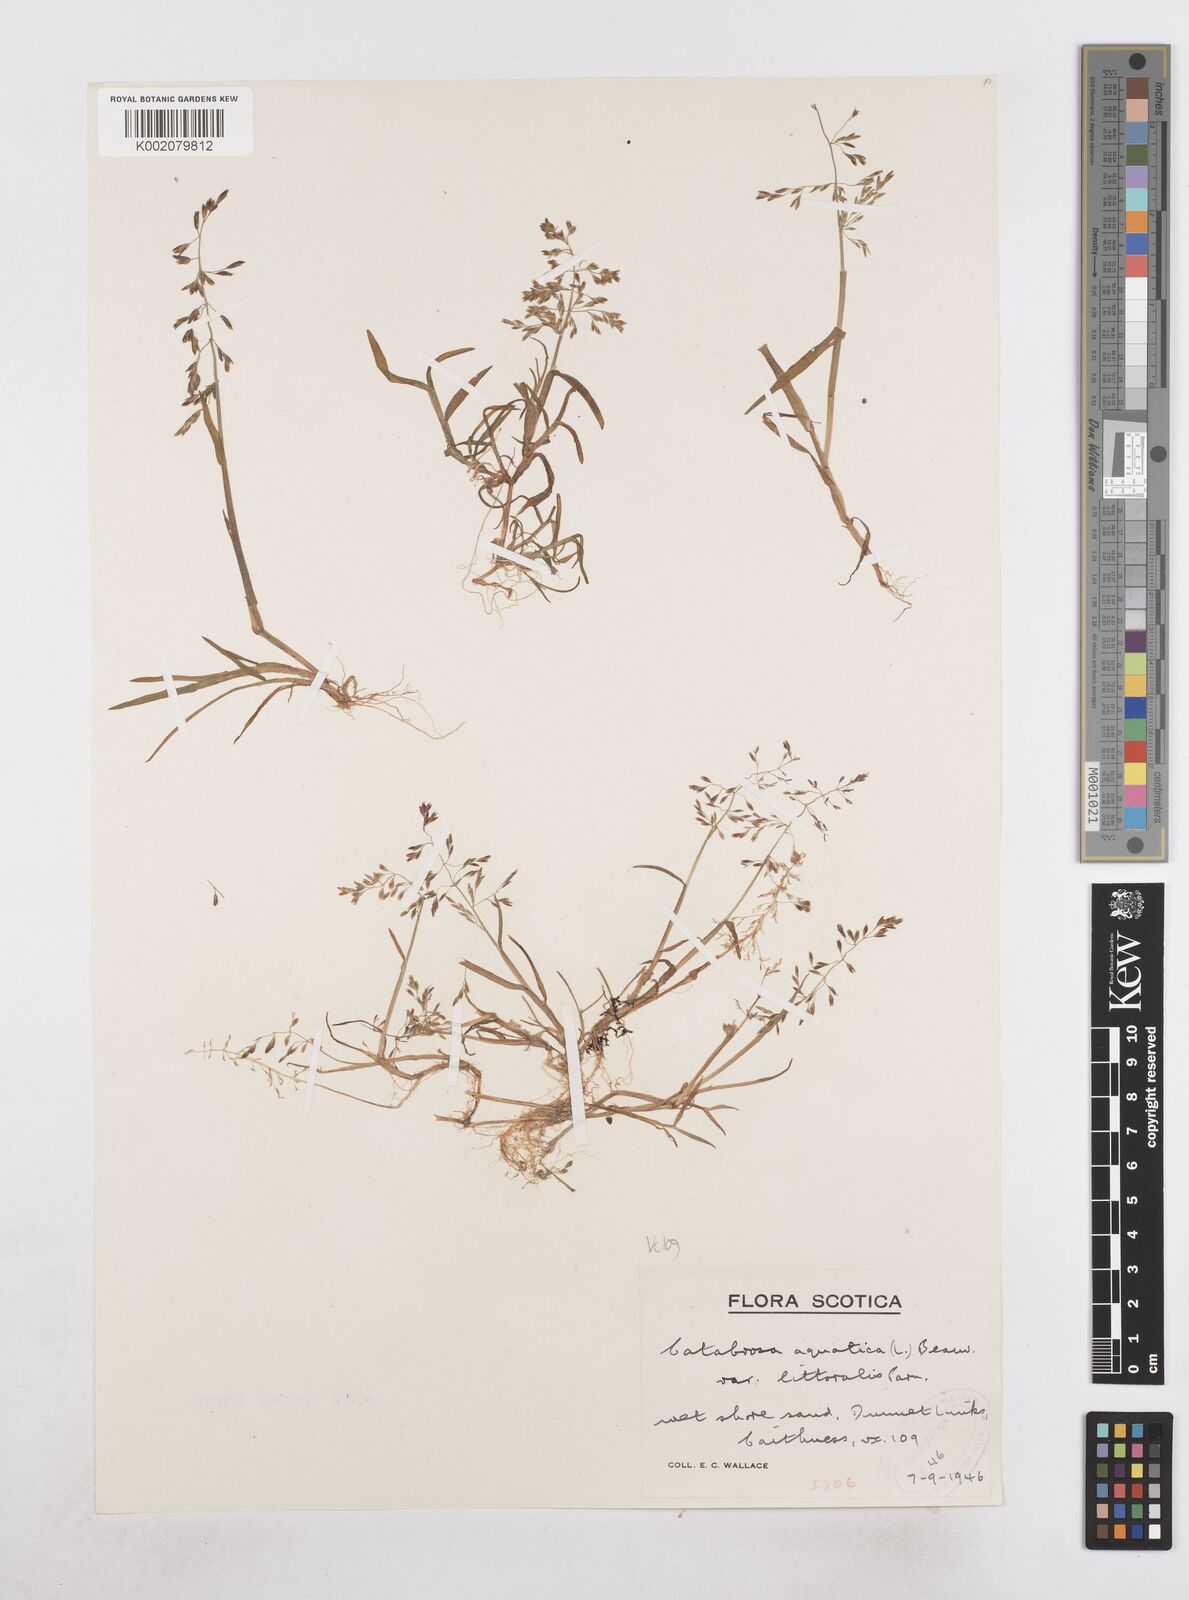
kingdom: Plantae
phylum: Tracheophyta
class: Liliopsida
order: Poales
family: Poaceae
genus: Catabrosa
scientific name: Catabrosa aquatica
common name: Whorl-grass
